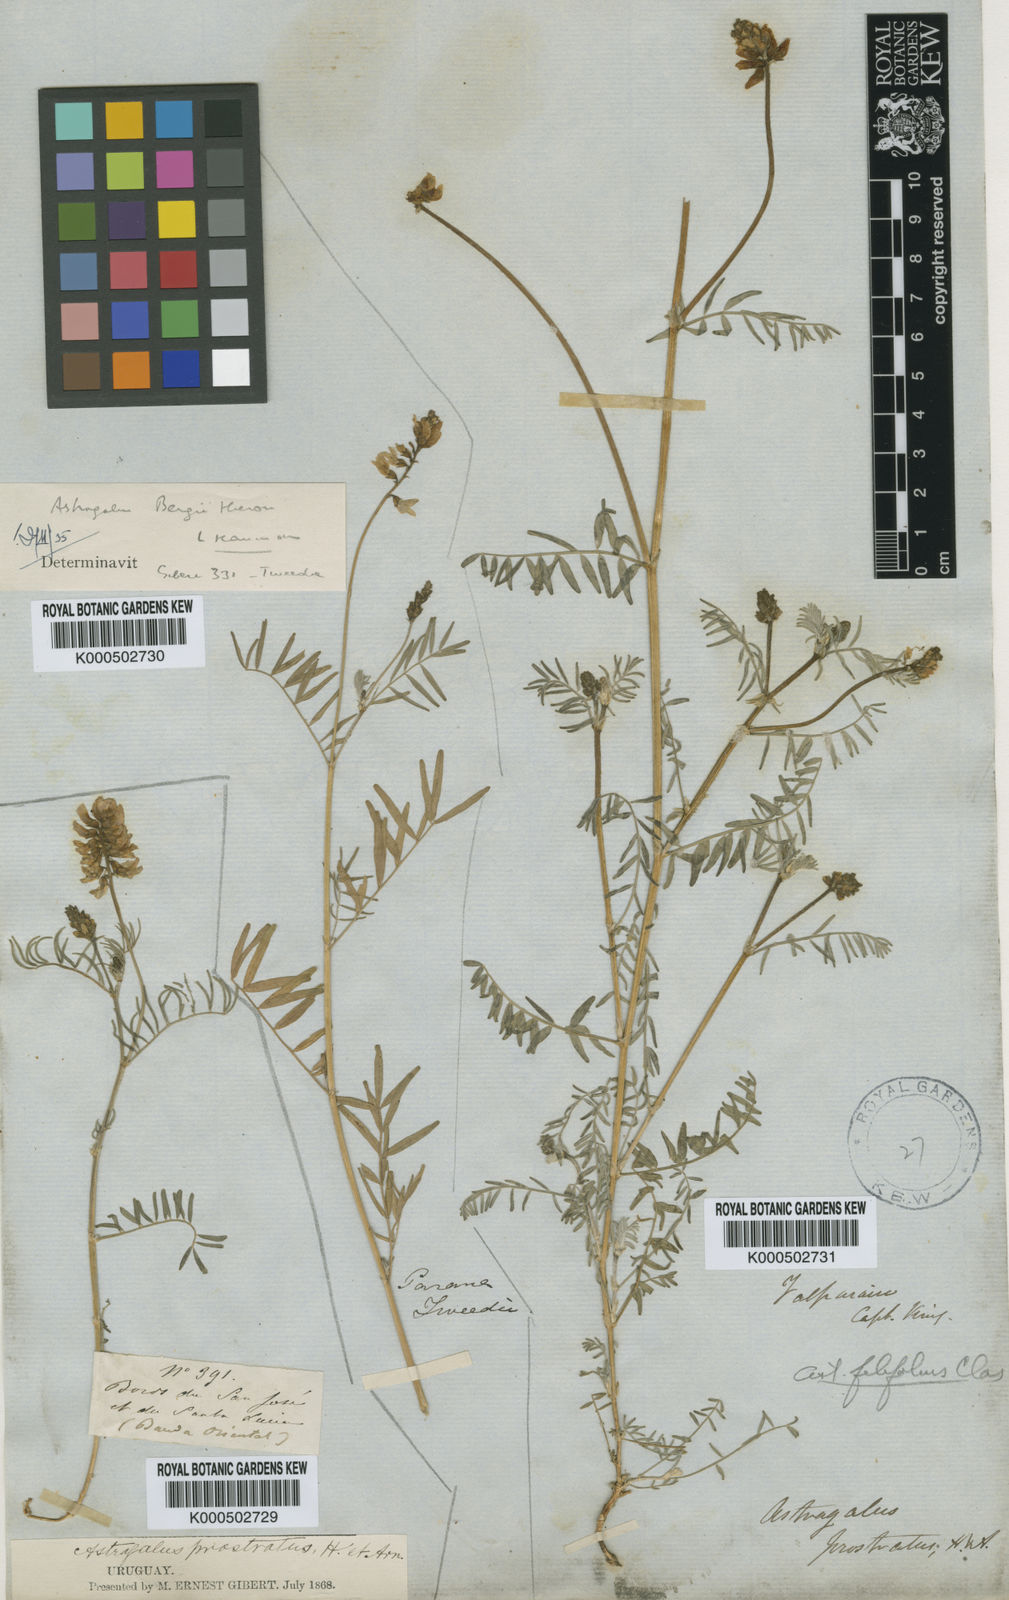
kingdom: Plantae
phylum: Tracheophyta
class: Magnoliopsida
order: Fabales
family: Fabaceae
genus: Astragalus
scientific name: Astragalus berteroi
